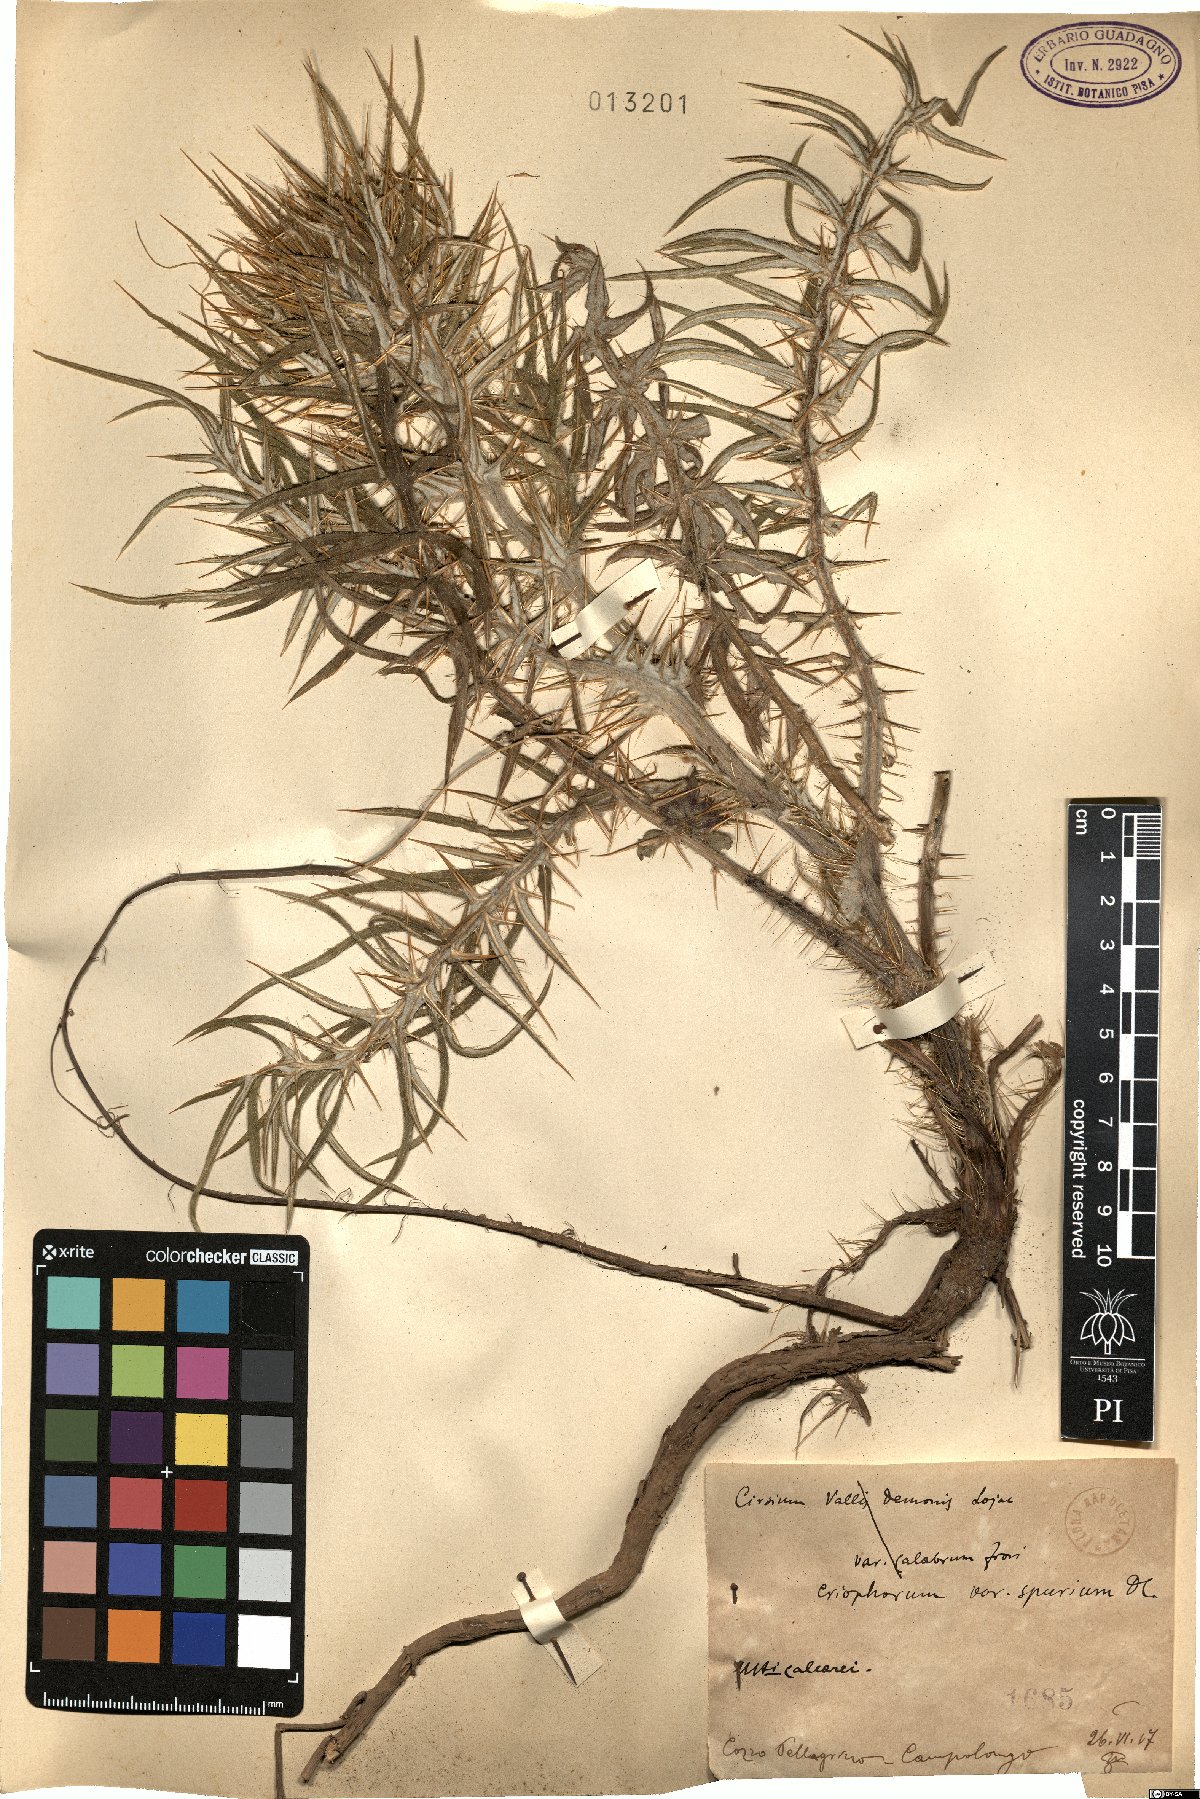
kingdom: Plantae
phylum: Tracheophyta
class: Magnoliopsida
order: Asterales
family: Asteraceae
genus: Lophiolepis
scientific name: Lophiolepis tenoreana
